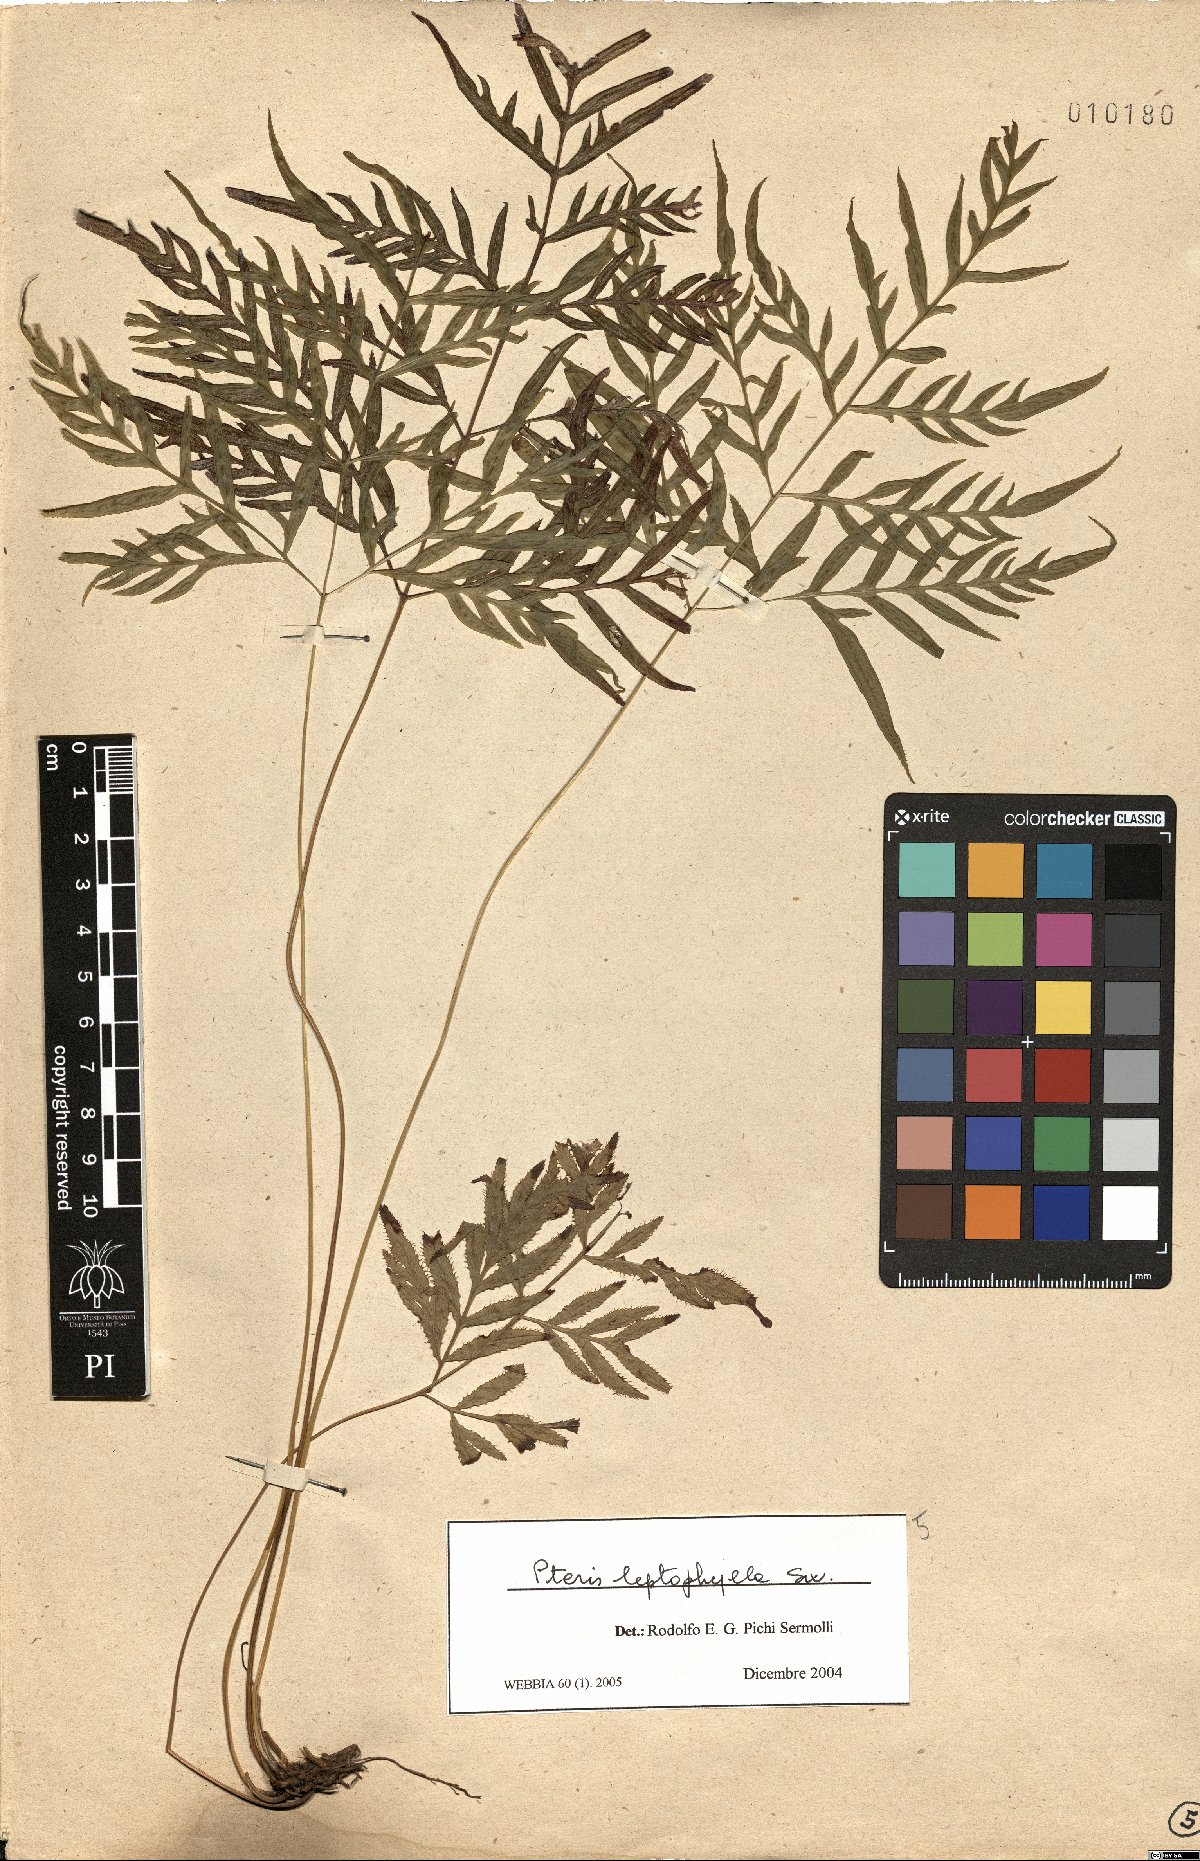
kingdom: Plantae
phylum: Tracheophyta
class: Polypodiopsida
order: Polypodiales
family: Pteridaceae
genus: Pteris
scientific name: Pteris leptophylla
